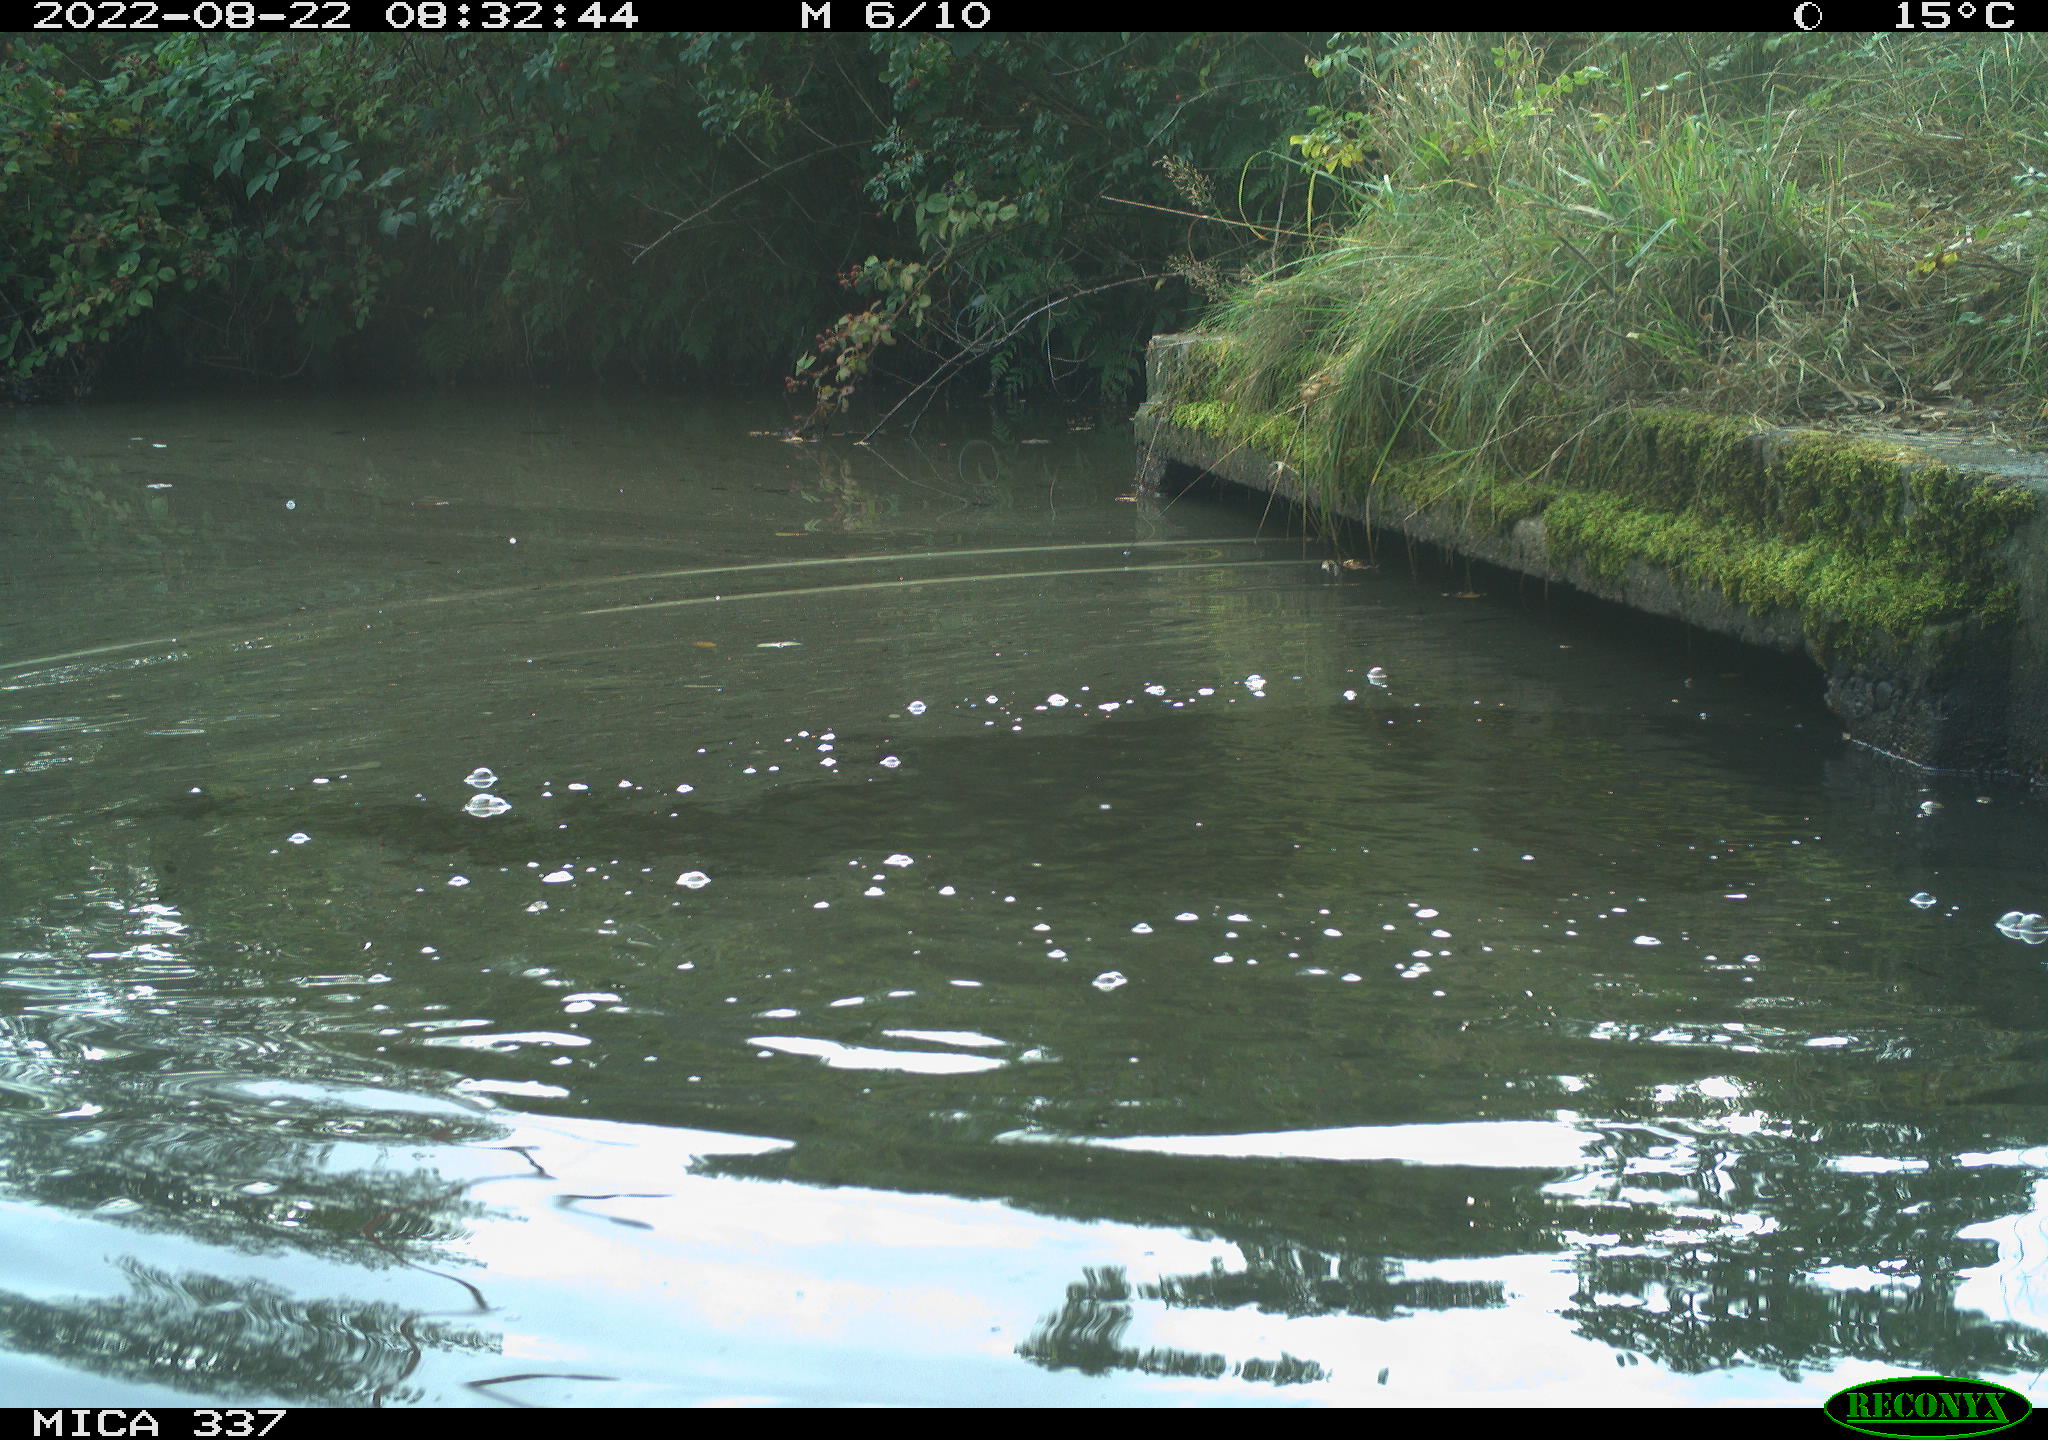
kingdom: Animalia
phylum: Chordata
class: Aves
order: Anseriformes
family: Anatidae
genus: Anas
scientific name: Anas platyrhynchos
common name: Mallard
